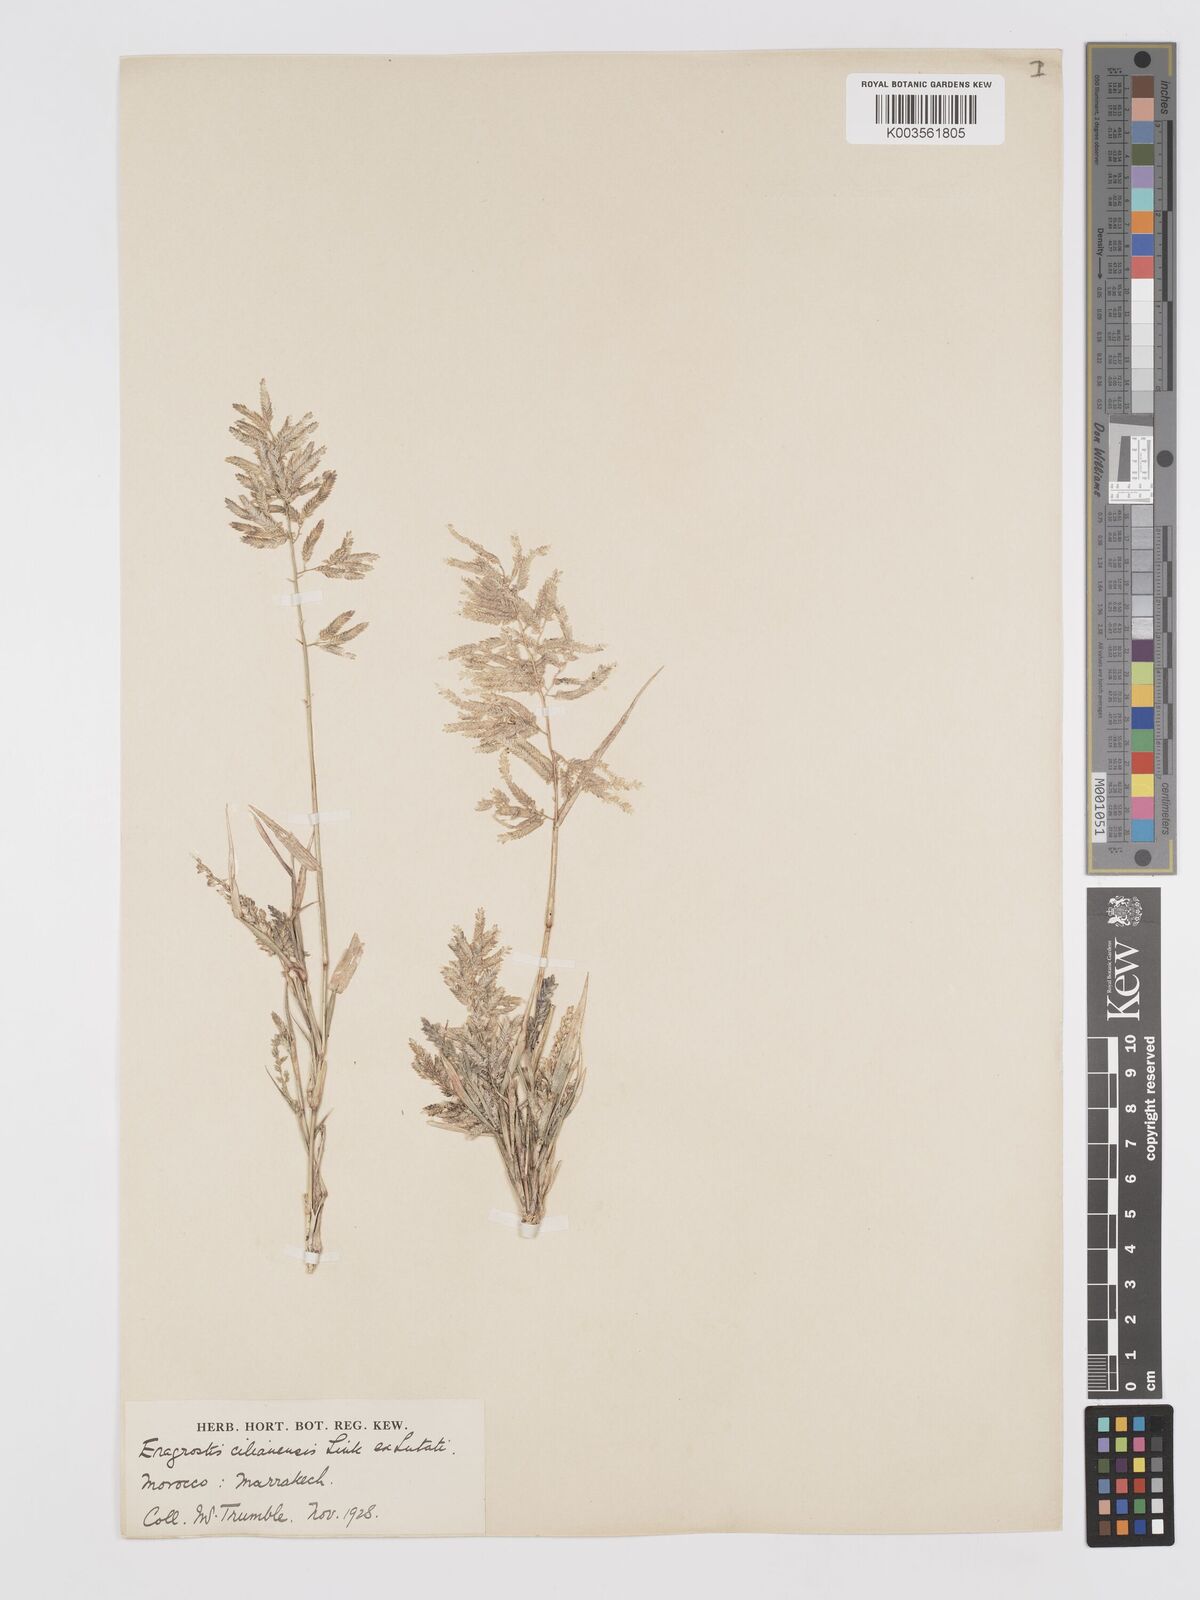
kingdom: Plantae
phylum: Tracheophyta
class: Liliopsida
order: Poales
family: Poaceae
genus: Eragrostis
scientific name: Eragrostis cilianensis
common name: Stinkgrass
